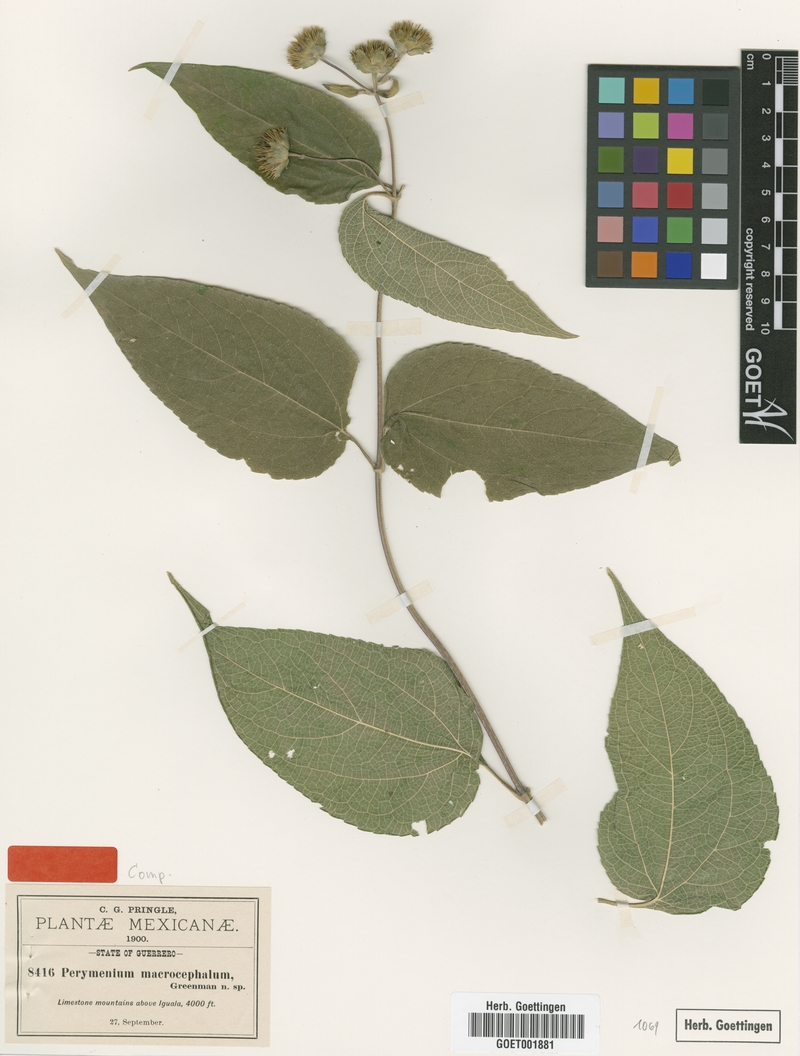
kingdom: Plantae
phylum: Tracheophyta
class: Magnoliopsida
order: Asterales
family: Asteraceae
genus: Perymenium
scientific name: Perymenium macrocephalum
